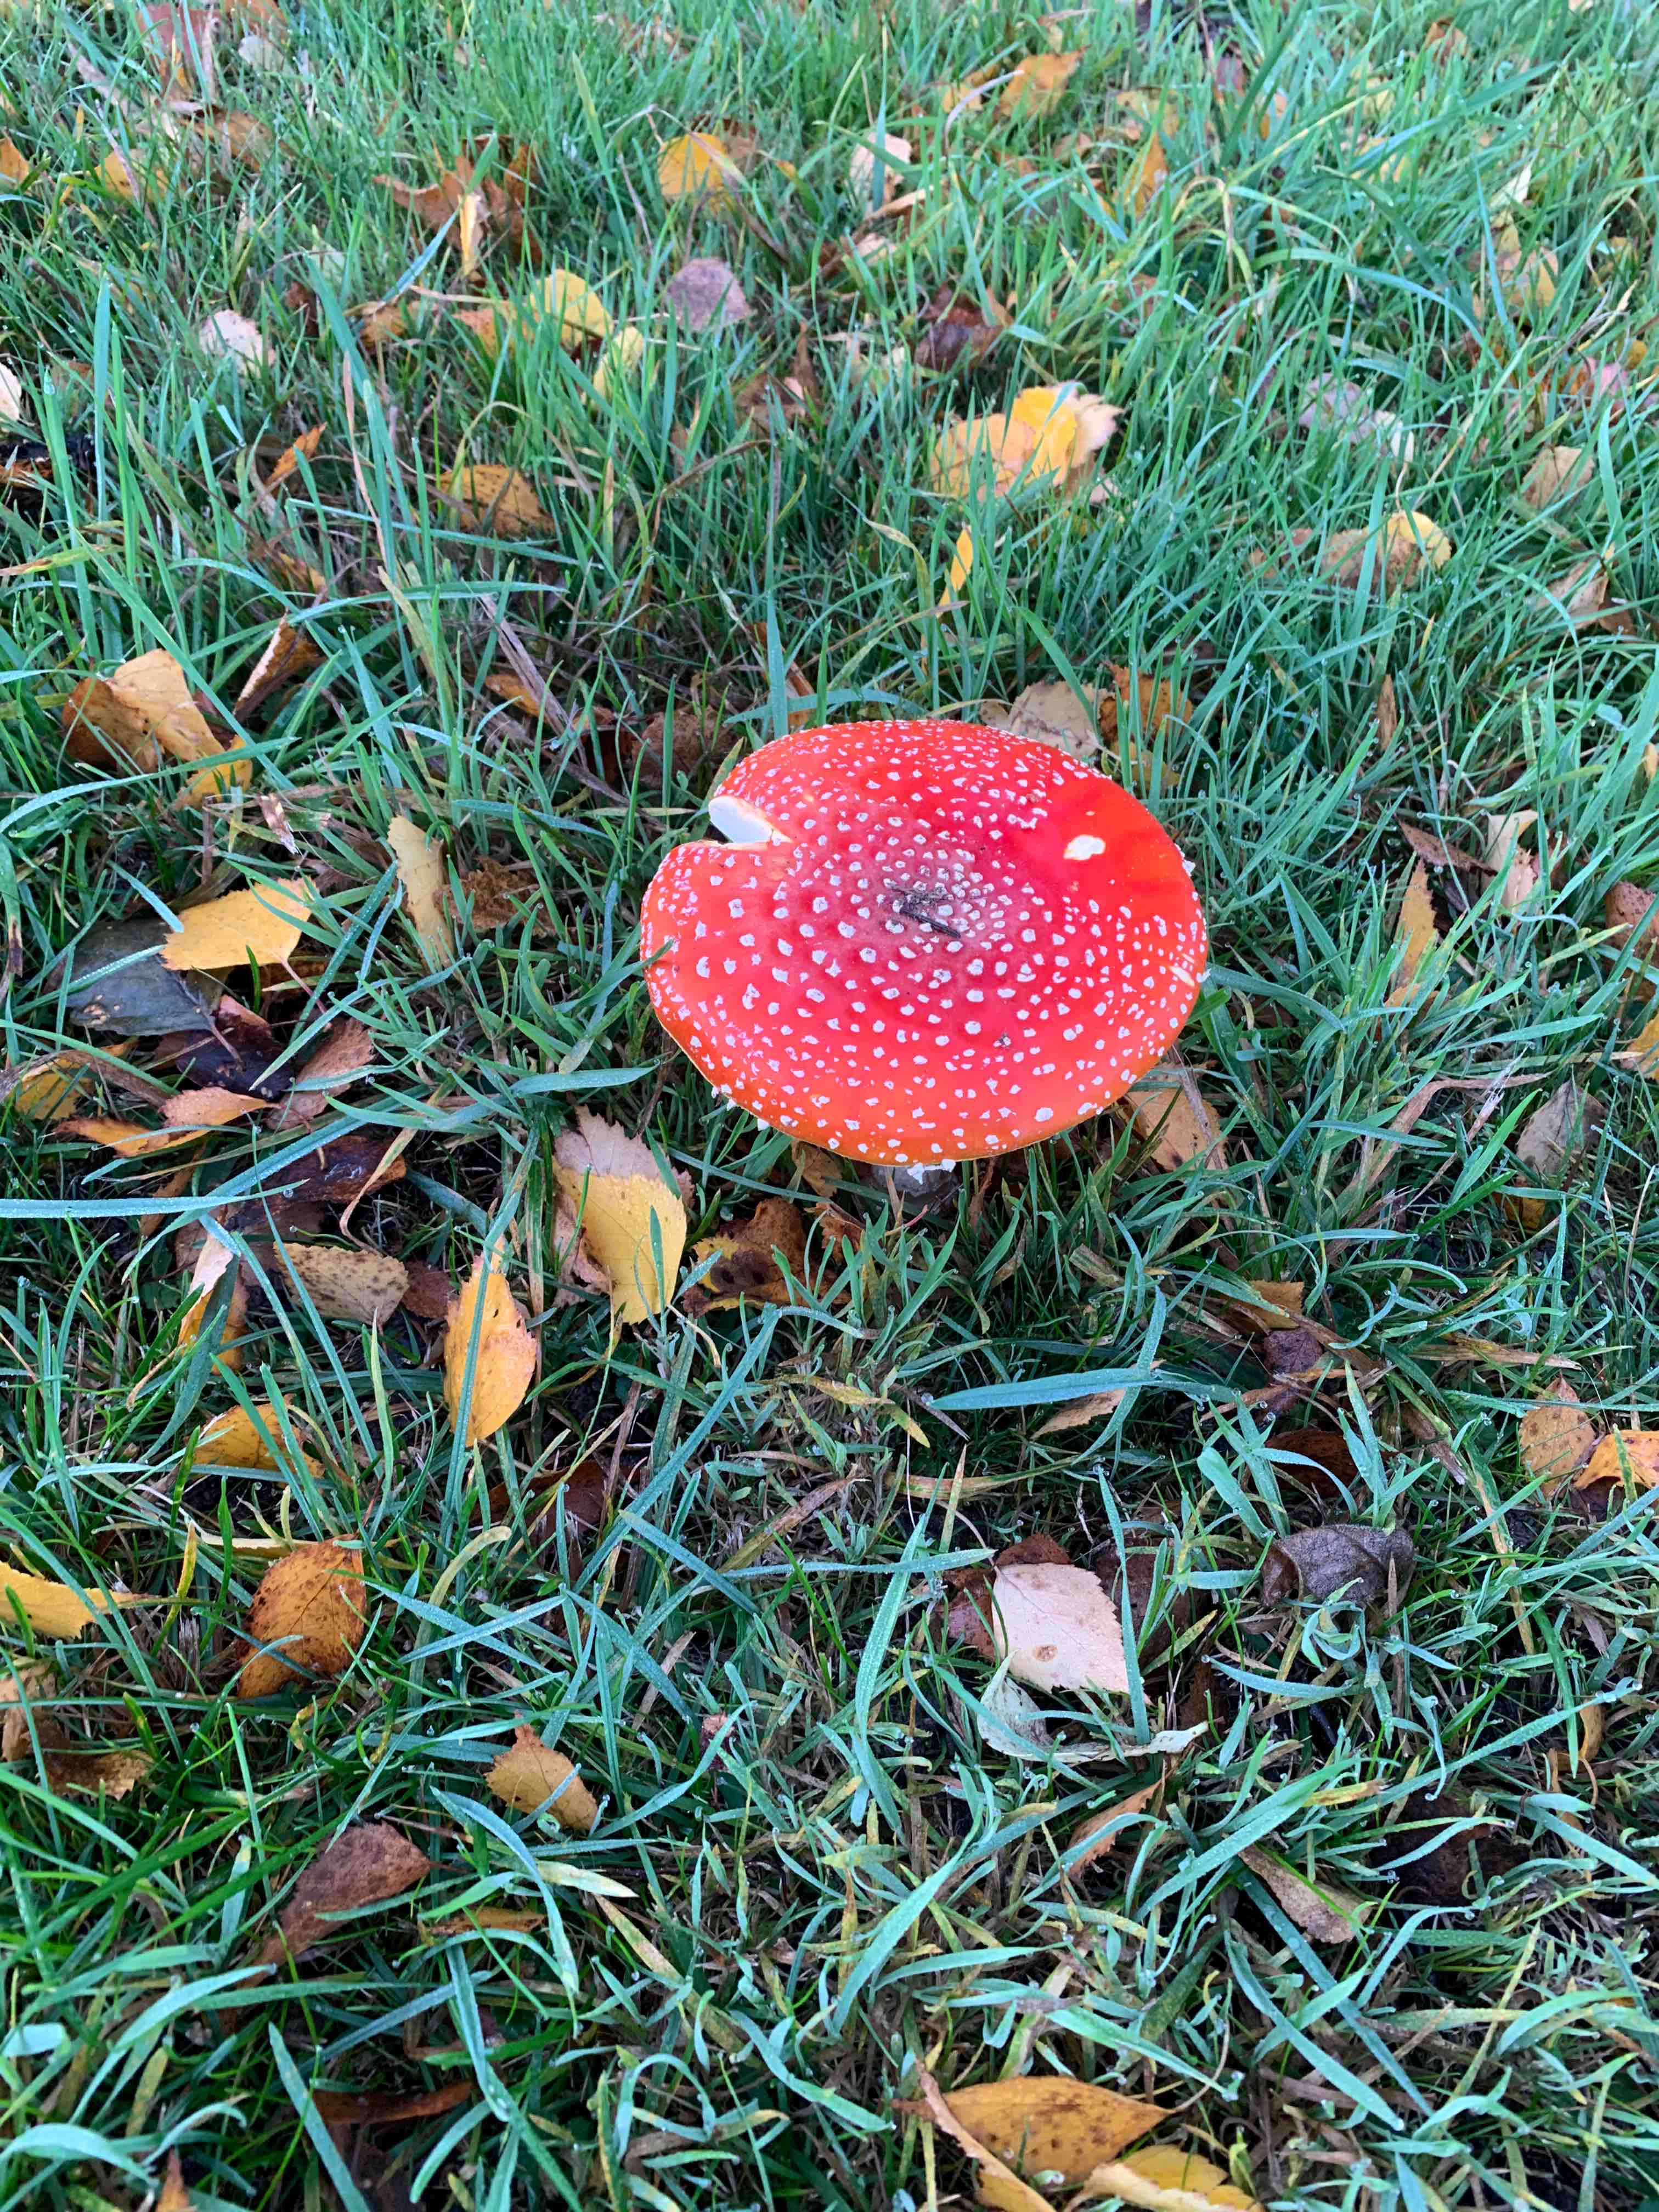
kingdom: Fungi
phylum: Basidiomycota
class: Agaricomycetes
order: Agaricales
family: Amanitaceae
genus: Amanita
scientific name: Amanita muscaria
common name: rød fluesvamp
